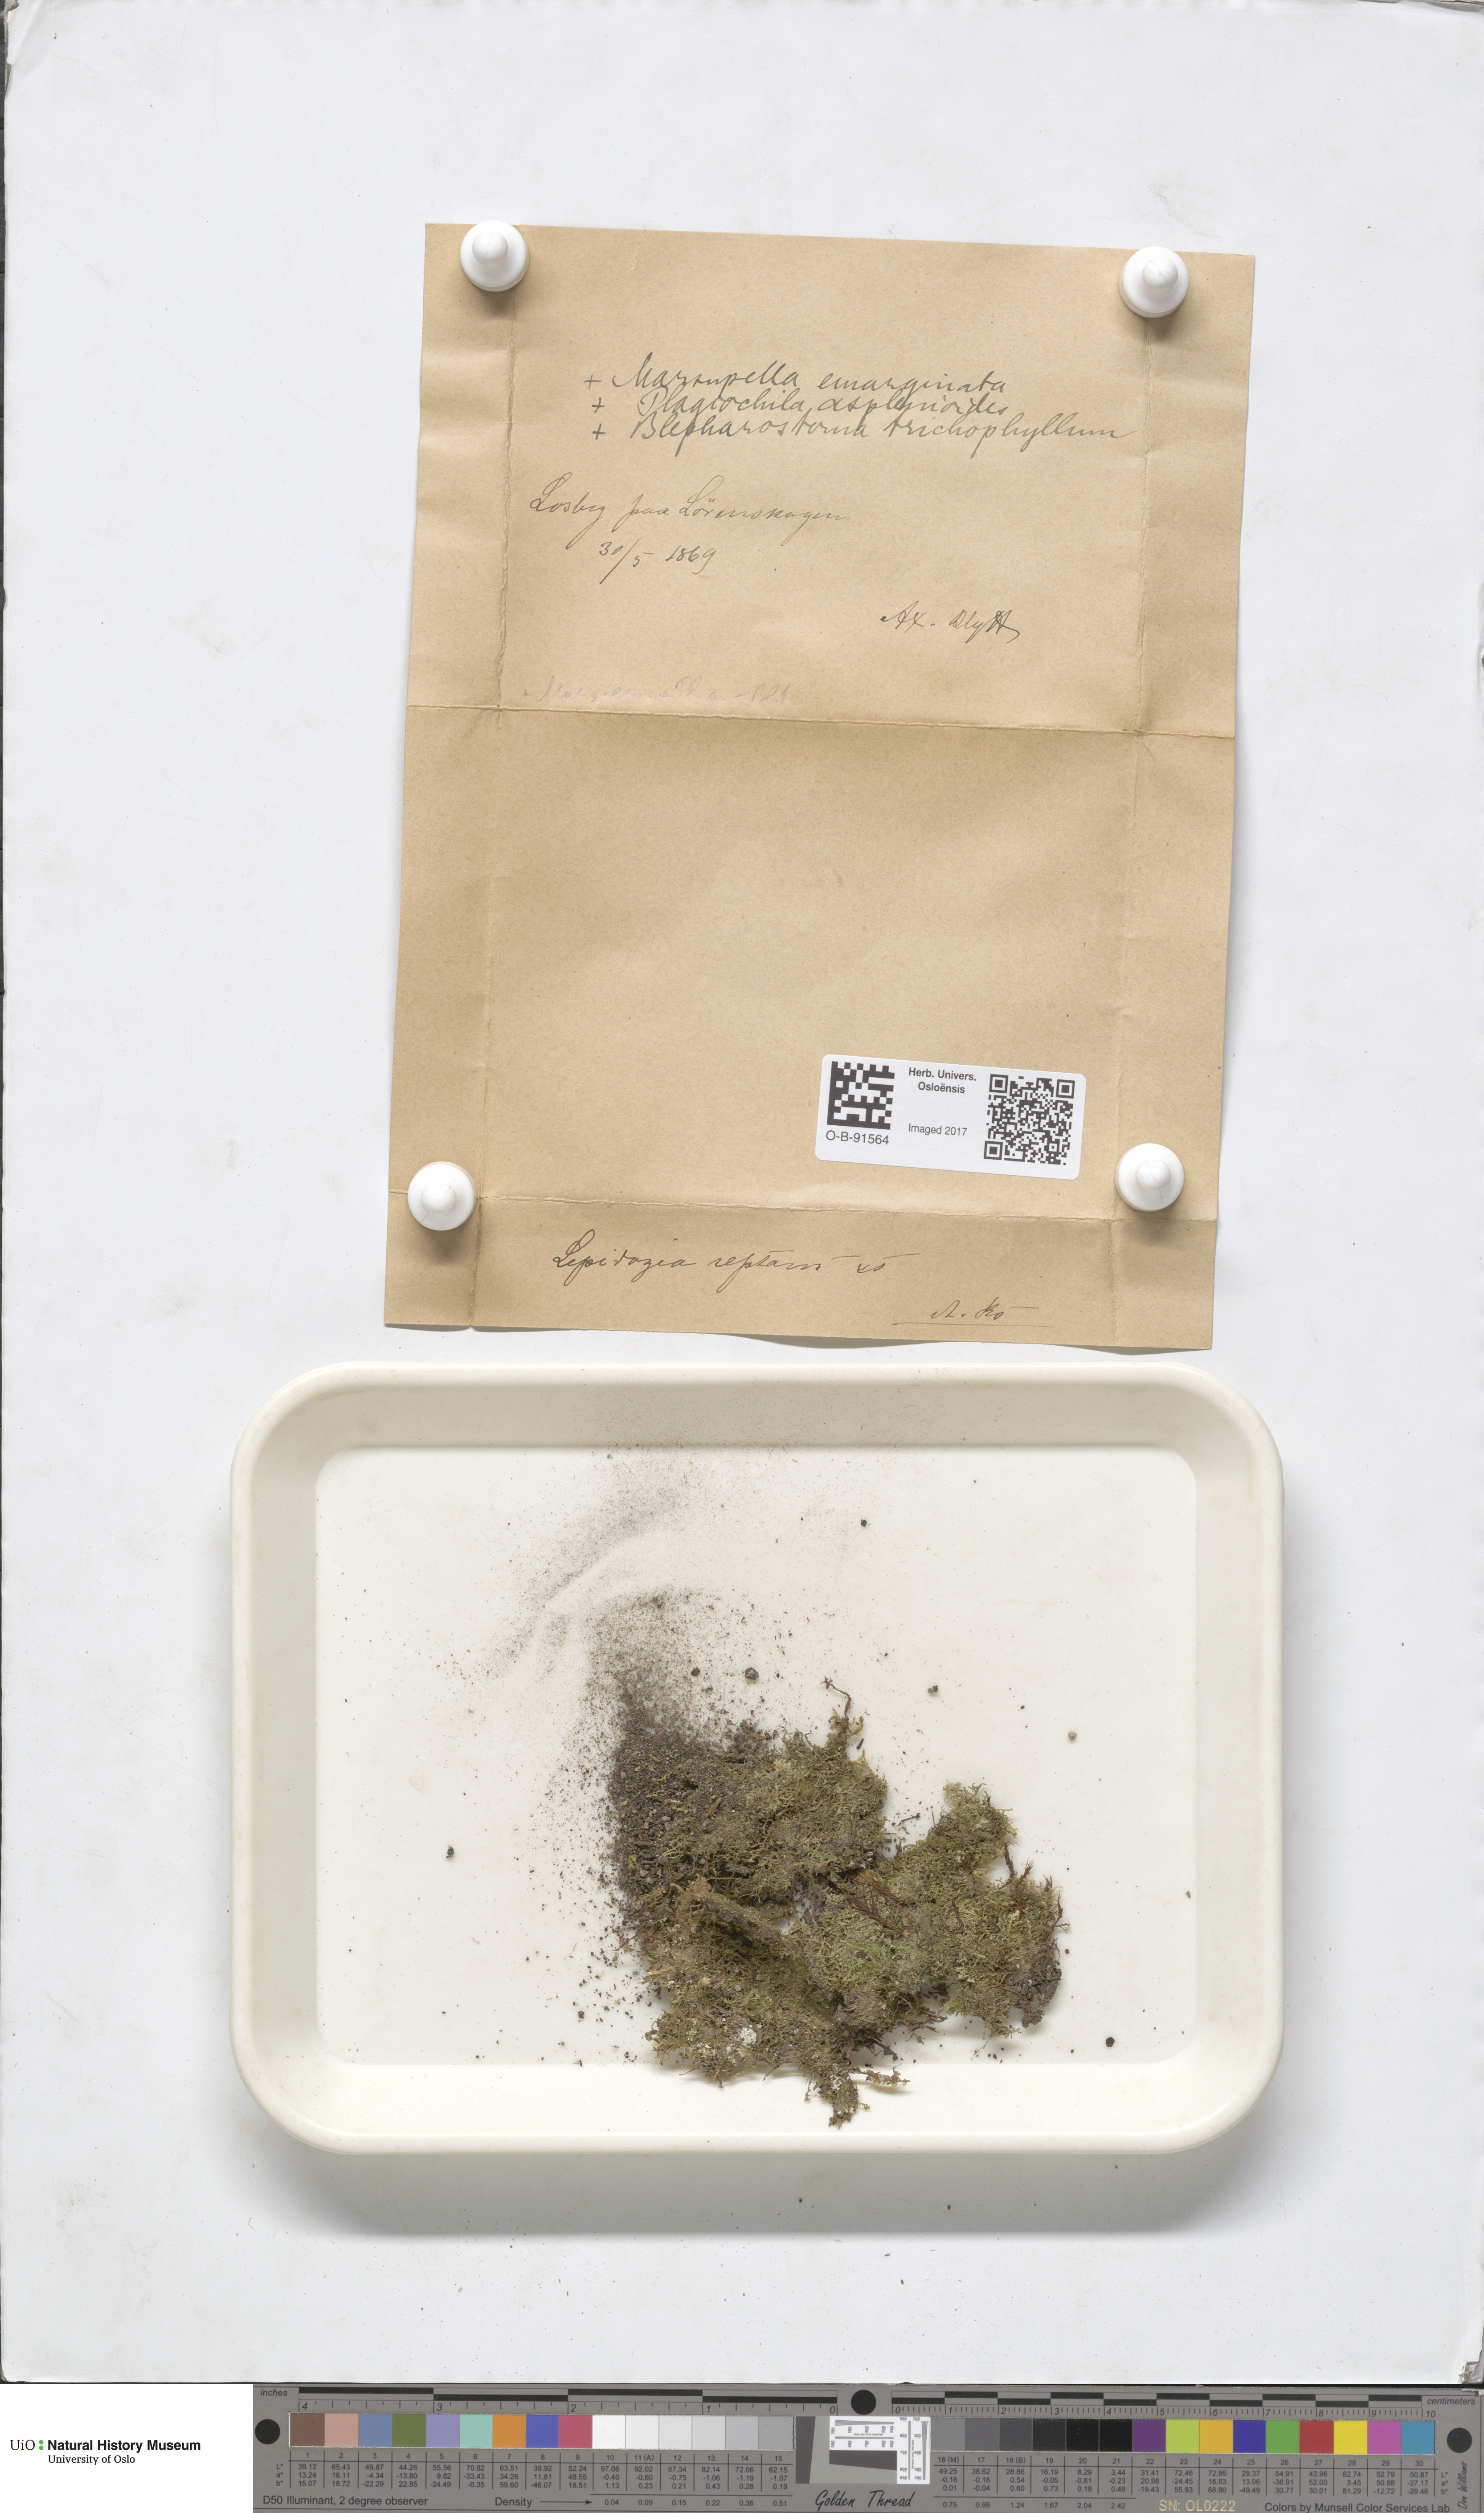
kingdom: Plantae
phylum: Marchantiophyta
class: Jungermanniopsida
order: Jungermanniales
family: Lepidoziaceae
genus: Lepidozia
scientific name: Lepidozia reptans
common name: Creeping fingerwort
